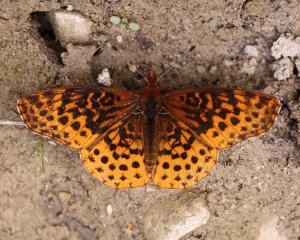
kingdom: Animalia
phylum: Arthropoda
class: Insecta
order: Lepidoptera
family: Nymphalidae
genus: Clossiana
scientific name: Clossiana toddi
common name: Meadow Fritillary
